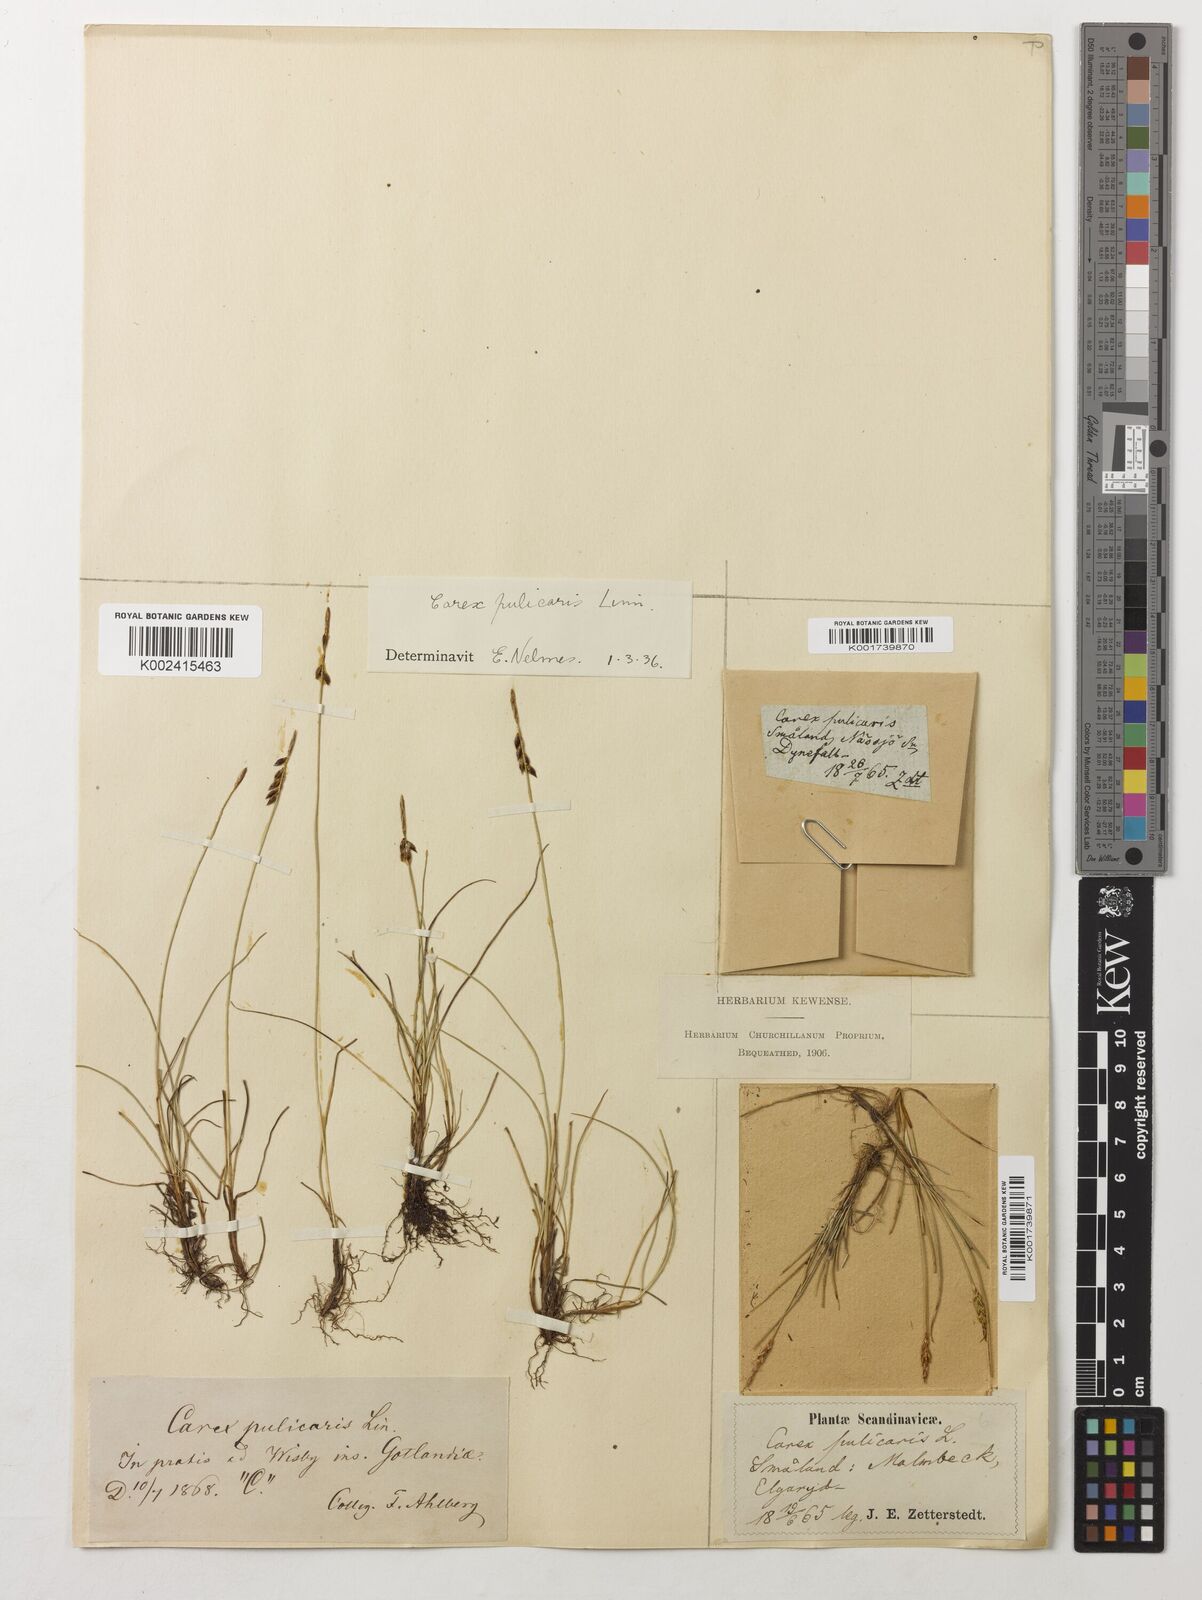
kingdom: Plantae
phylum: Tracheophyta
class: Liliopsida
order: Poales
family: Cyperaceae
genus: Carex
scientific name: Carex pulicaris
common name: Flea sedge
